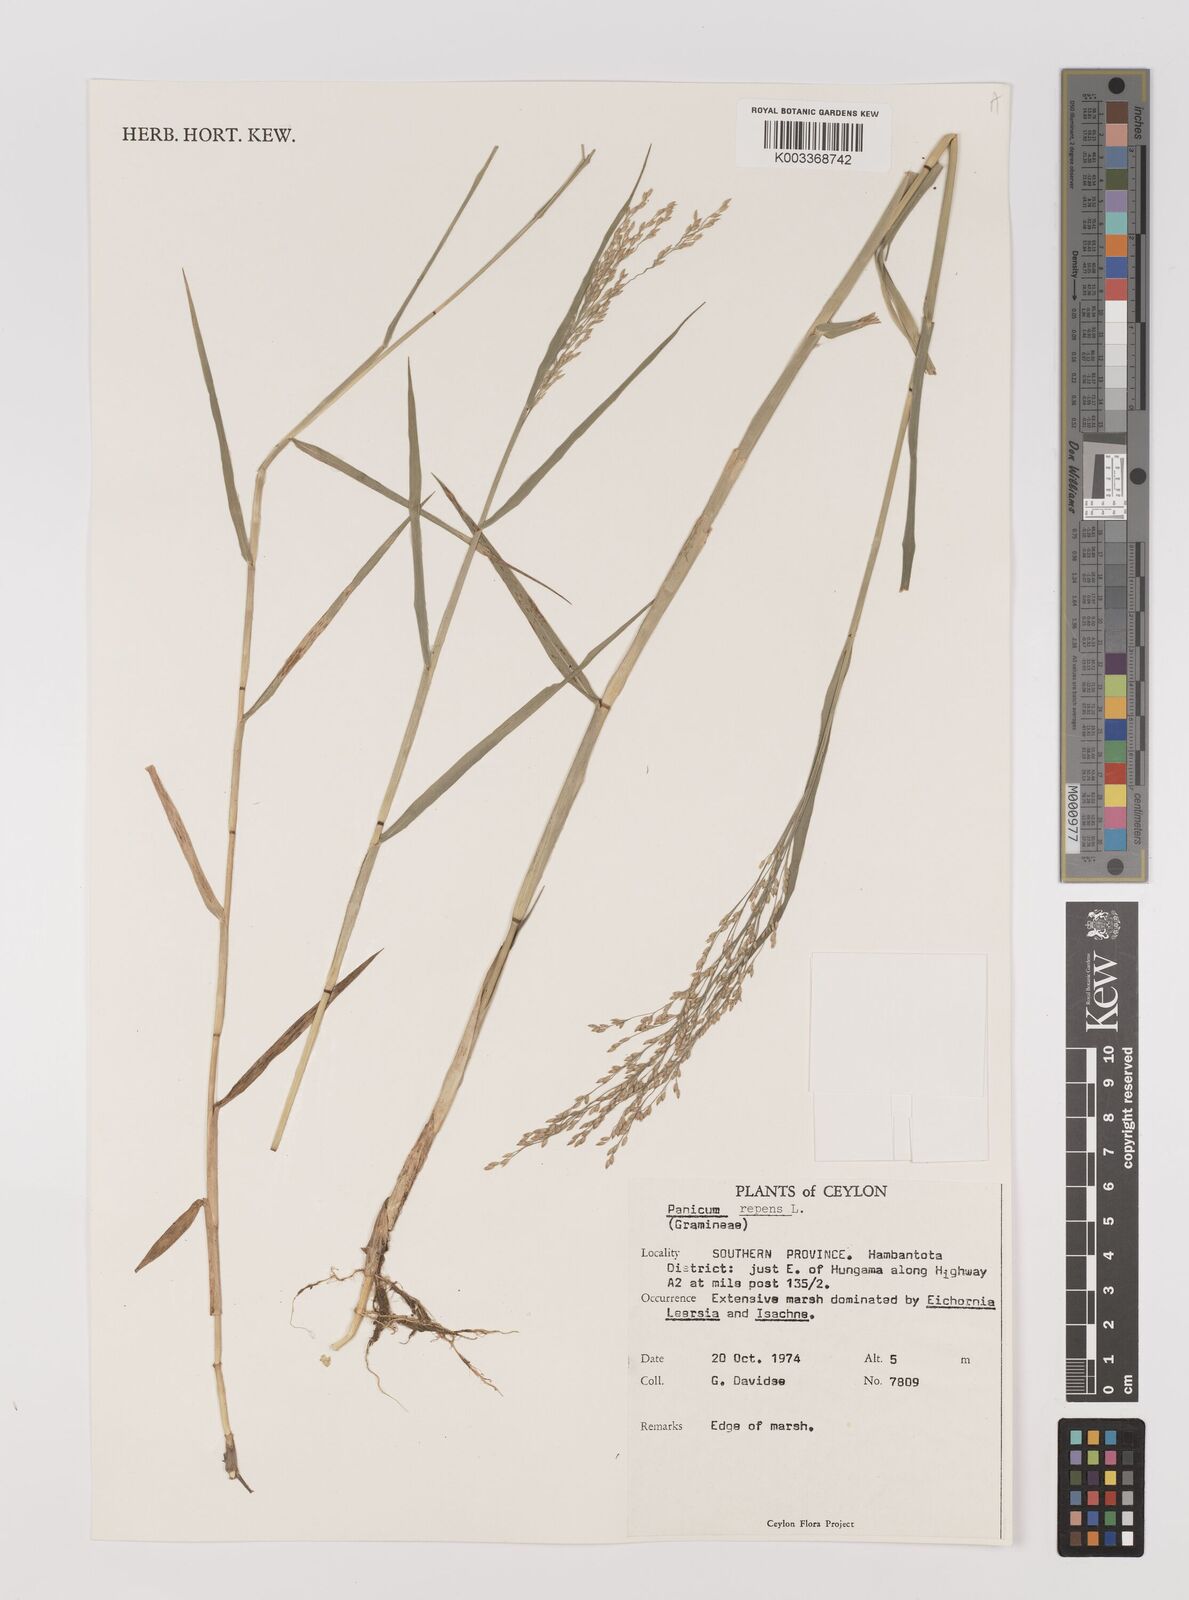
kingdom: Plantae
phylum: Tracheophyta
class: Liliopsida
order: Poales
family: Poaceae
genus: Panicum
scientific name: Panicum repens
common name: Torpedo grass
